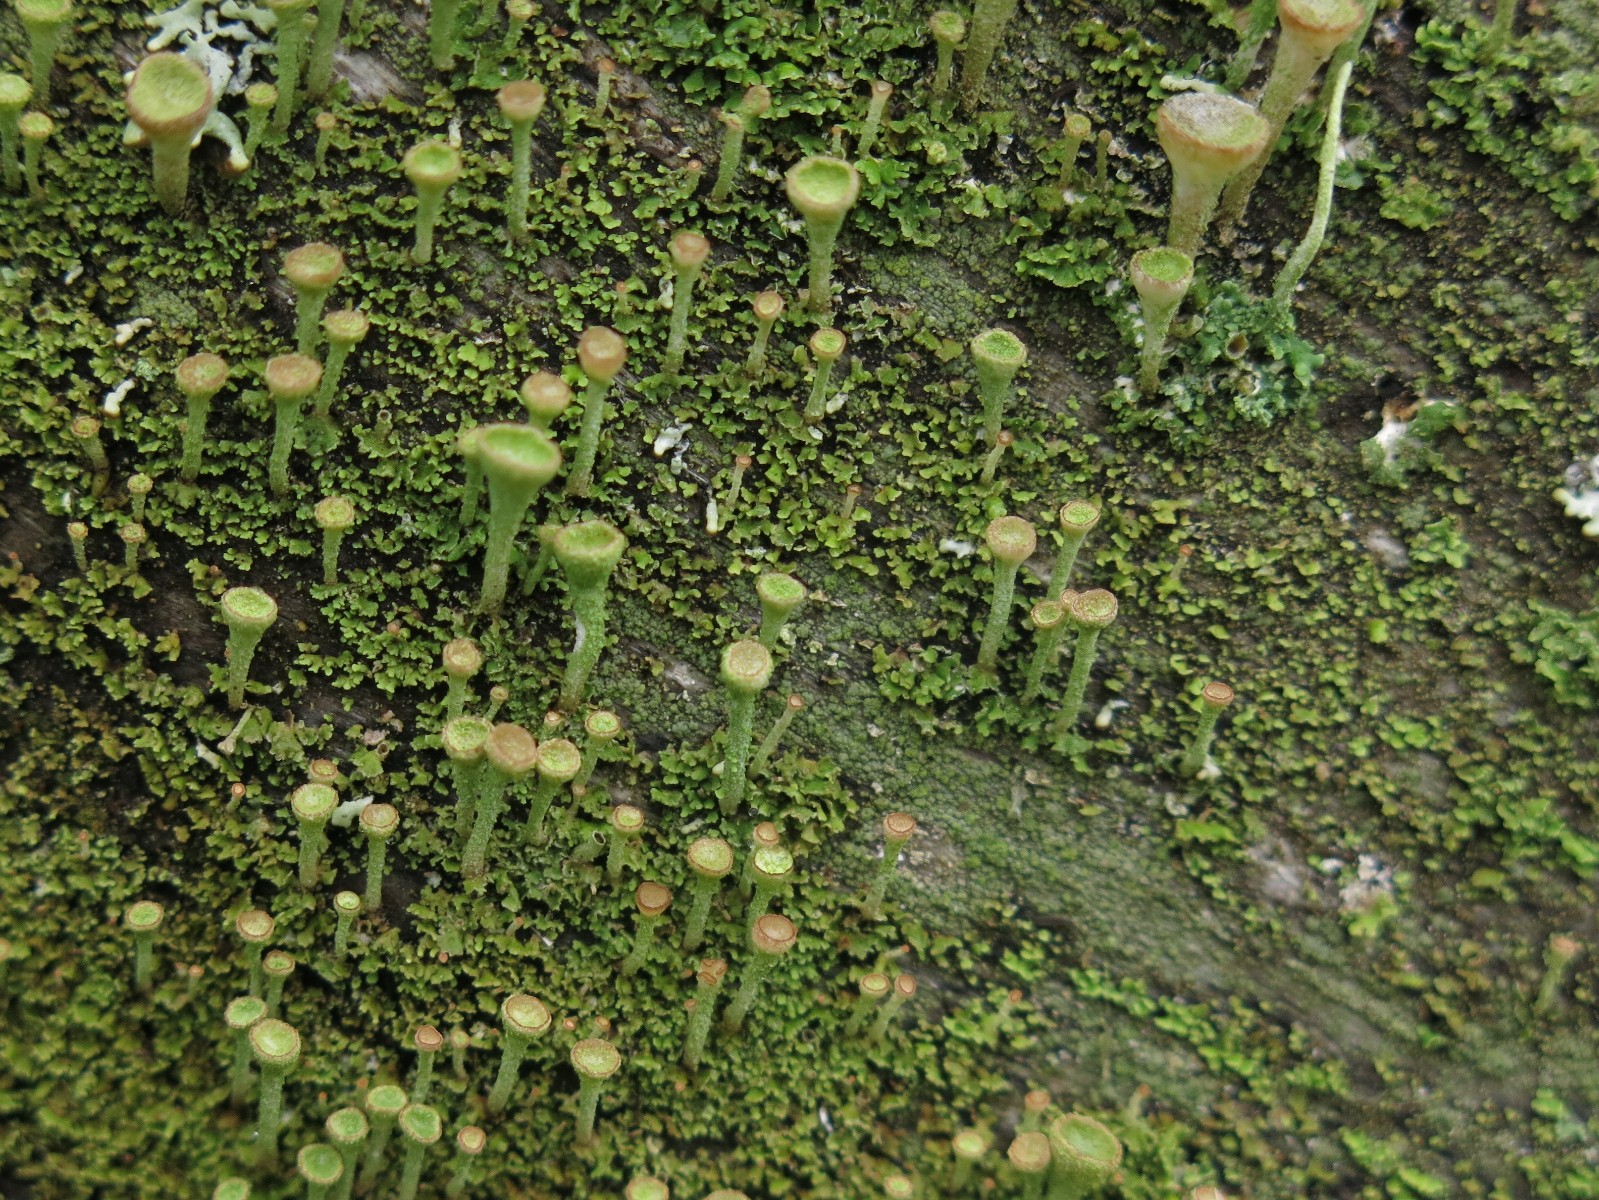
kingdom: Fungi
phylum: Ascomycota
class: Lecanoromycetes
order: Lecanorales
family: Cladoniaceae
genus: Cladonia
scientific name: Cladonia fimbriata
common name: bleggrøn bægerlav
